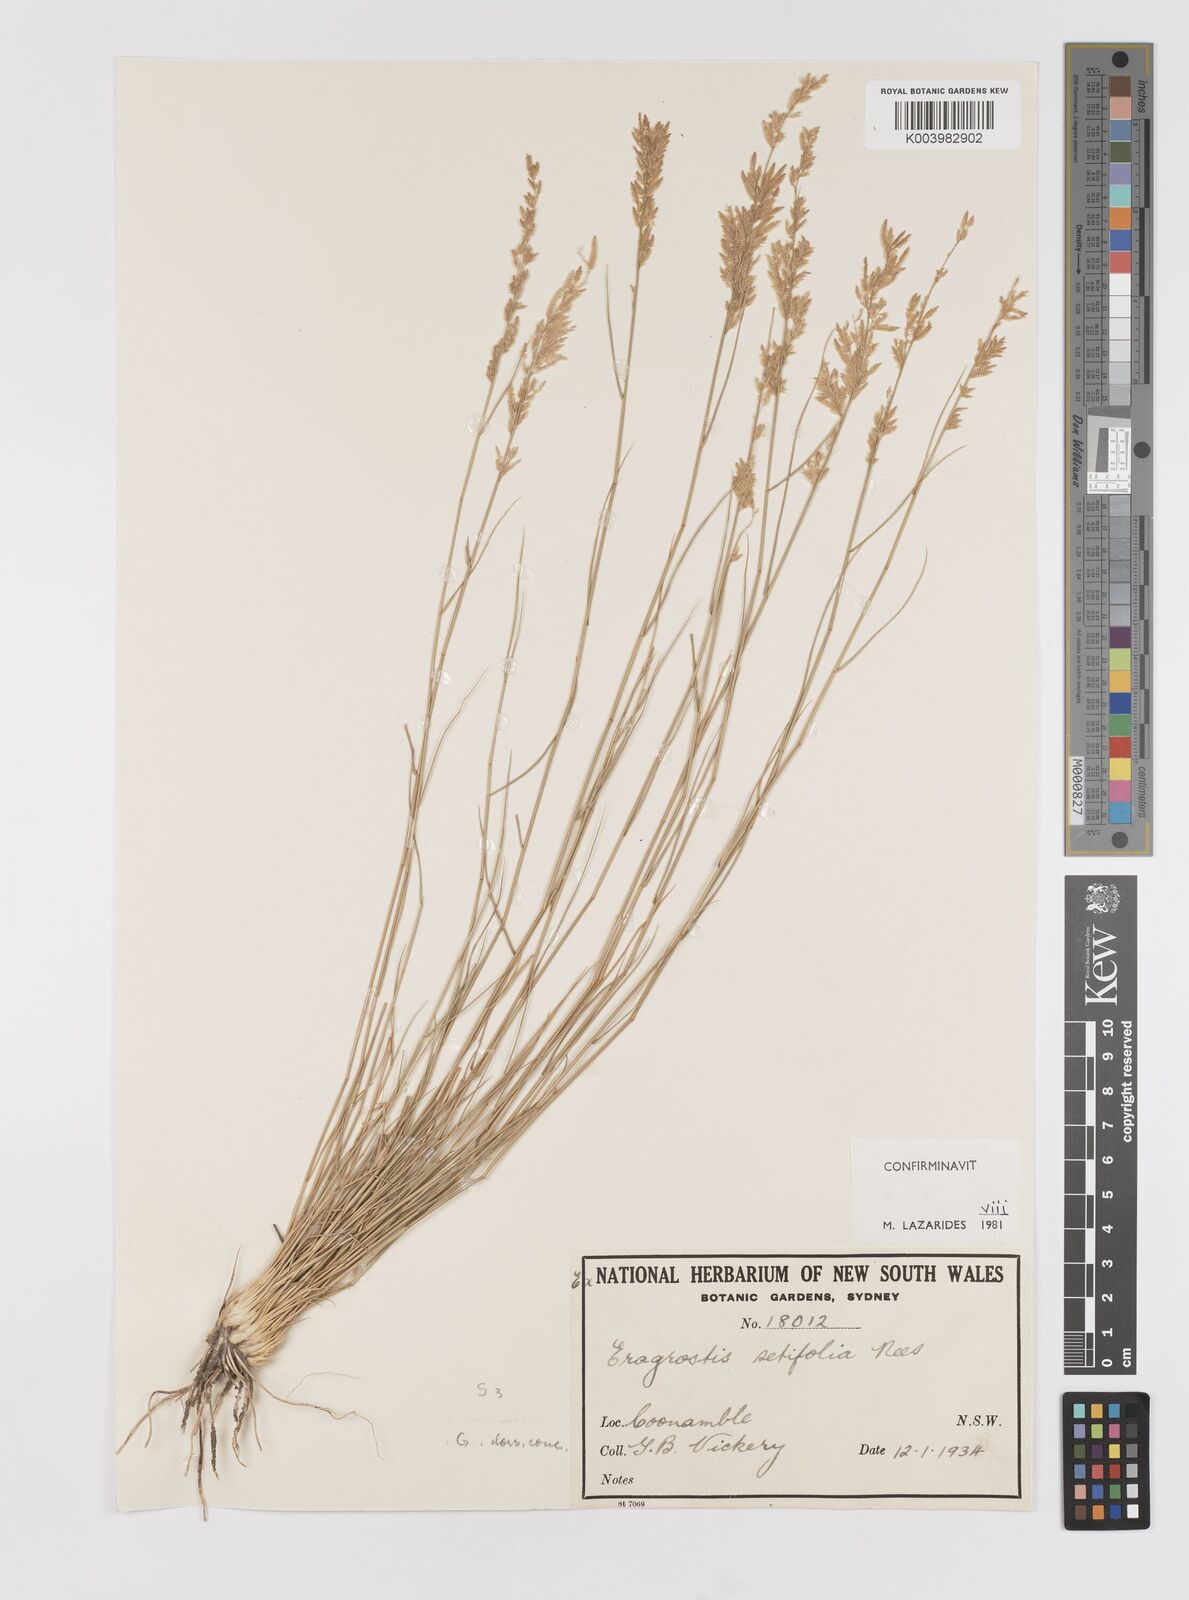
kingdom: Plantae
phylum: Tracheophyta
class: Liliopsida
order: Poales
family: Poaceae
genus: Eragrostis
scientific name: Eragrostis setifolia
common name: Bristleleaf lovegrass
